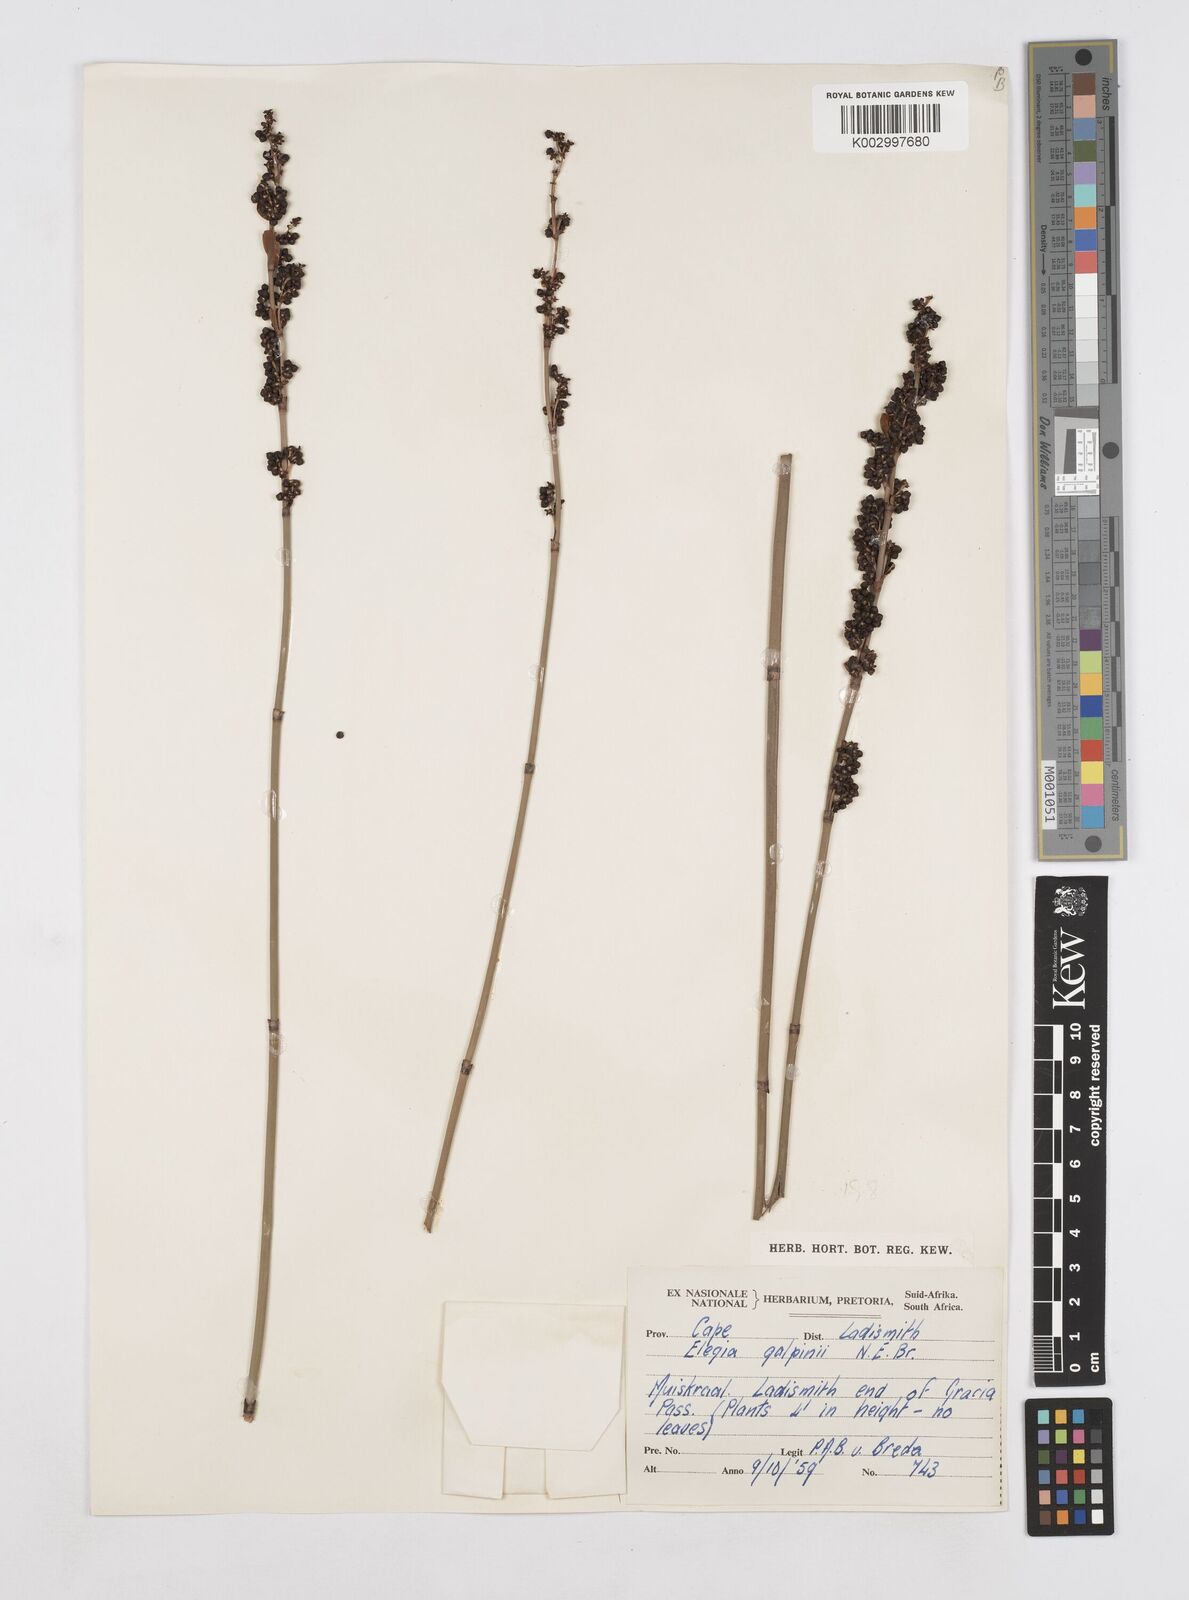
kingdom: Plantae
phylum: Tracheophyta
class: Liliopsida
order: Poales
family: Restionaceae
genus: Elegia
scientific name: Elegia galpinii
